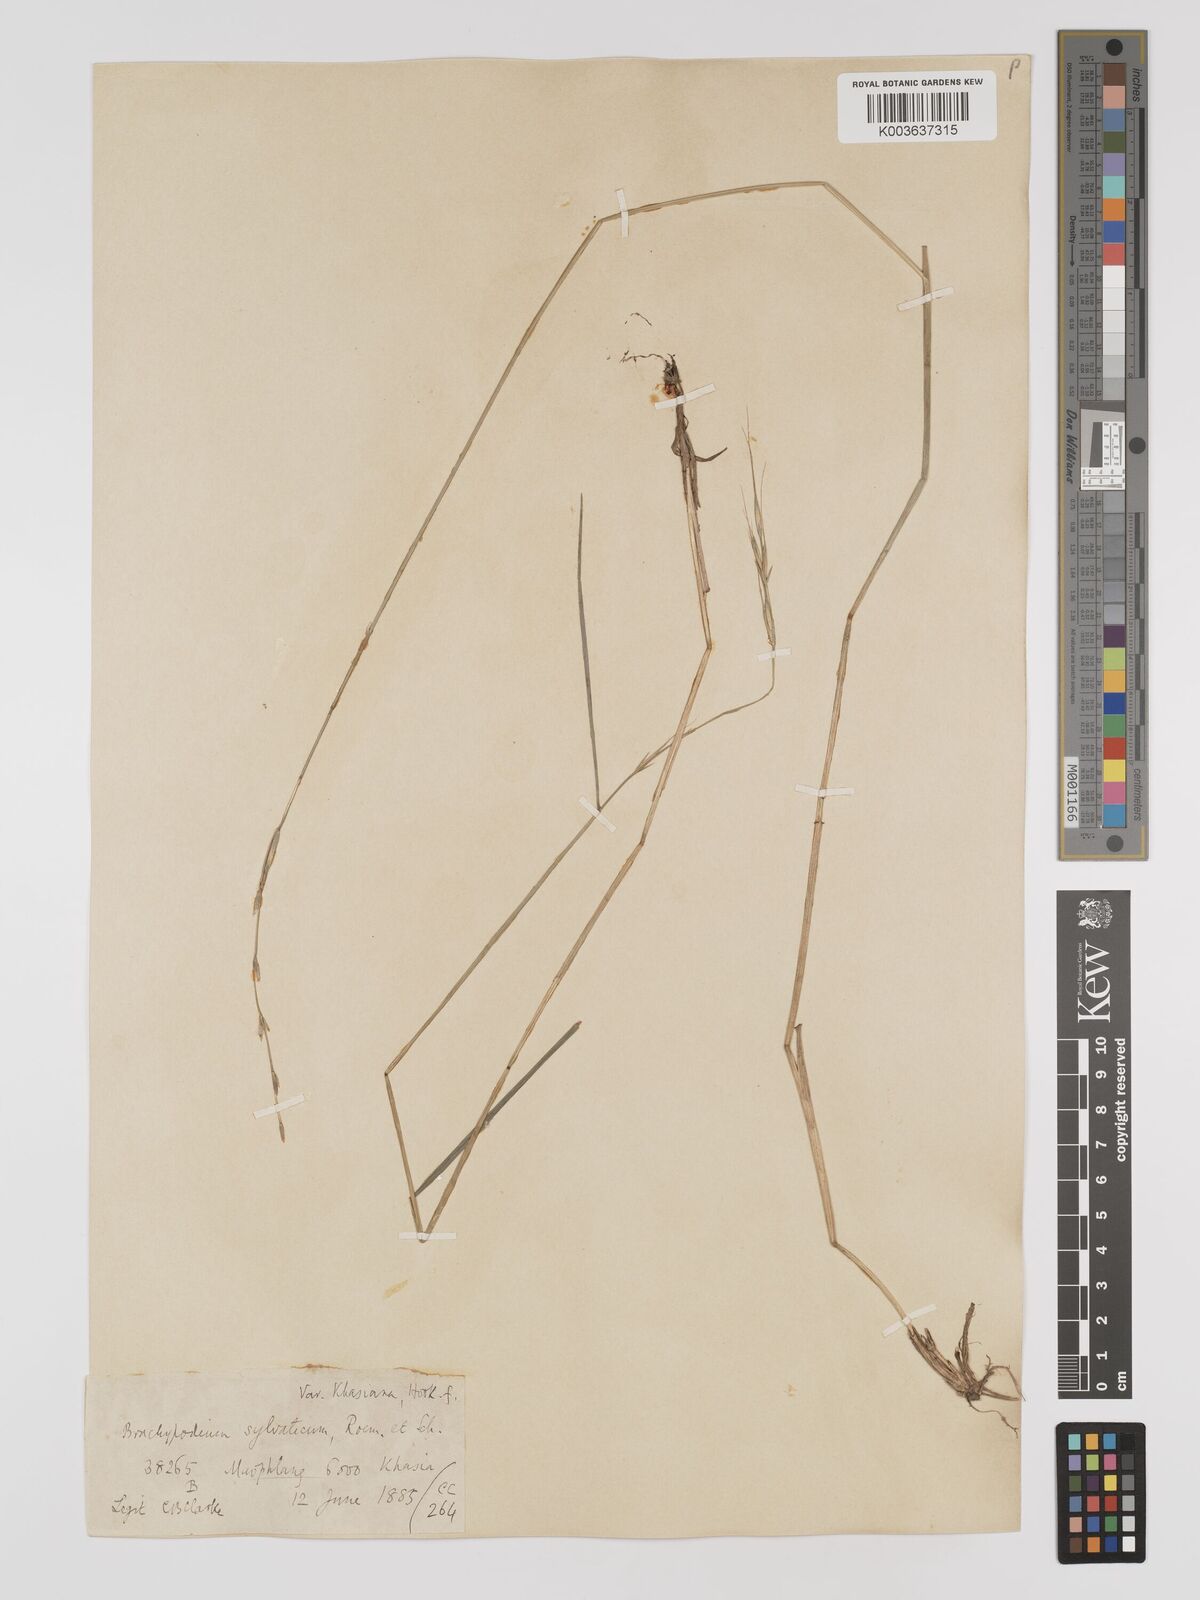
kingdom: Plantae
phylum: Tracheophyta
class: Liliopsida
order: Poales
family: Poaceae
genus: Brachypodium
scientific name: Brachypodium sylvaticum
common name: False-brome
